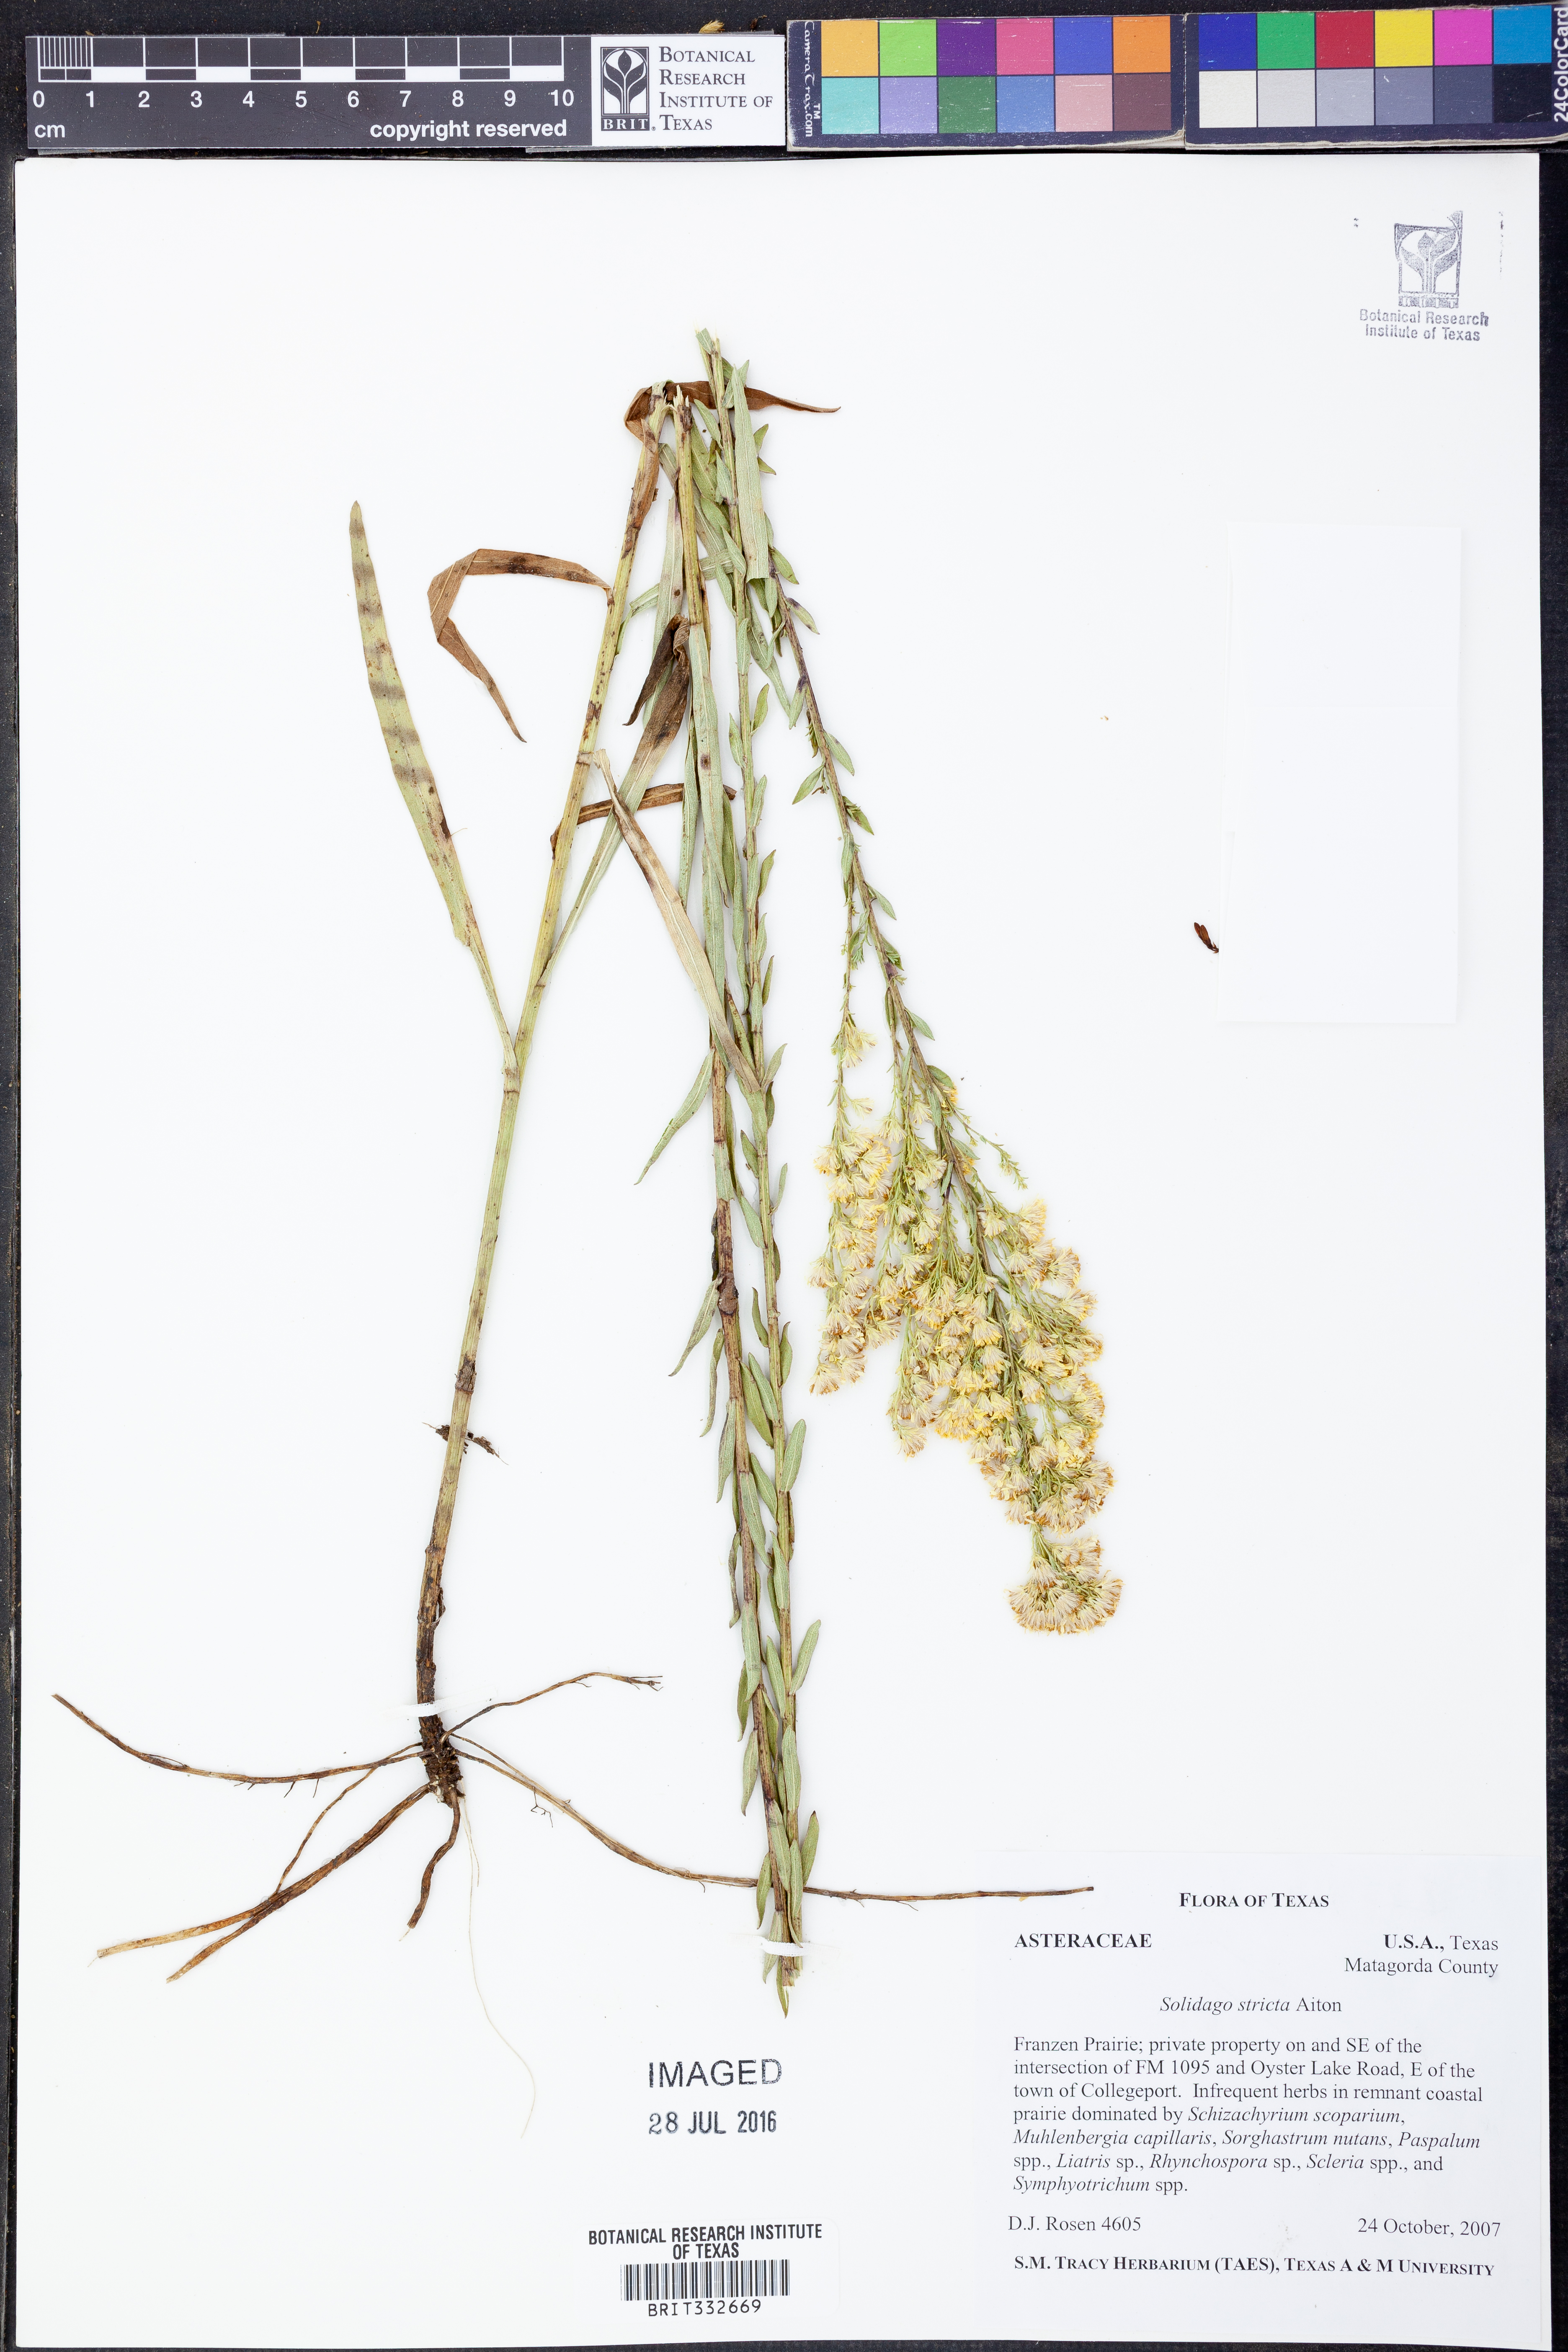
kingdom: Plantae
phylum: Tracheophyta
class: Magnoliopsida
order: Asterales
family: Asteraceae
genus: Solidago
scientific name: Solidago stricta
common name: Pine barren bog goldenrod
